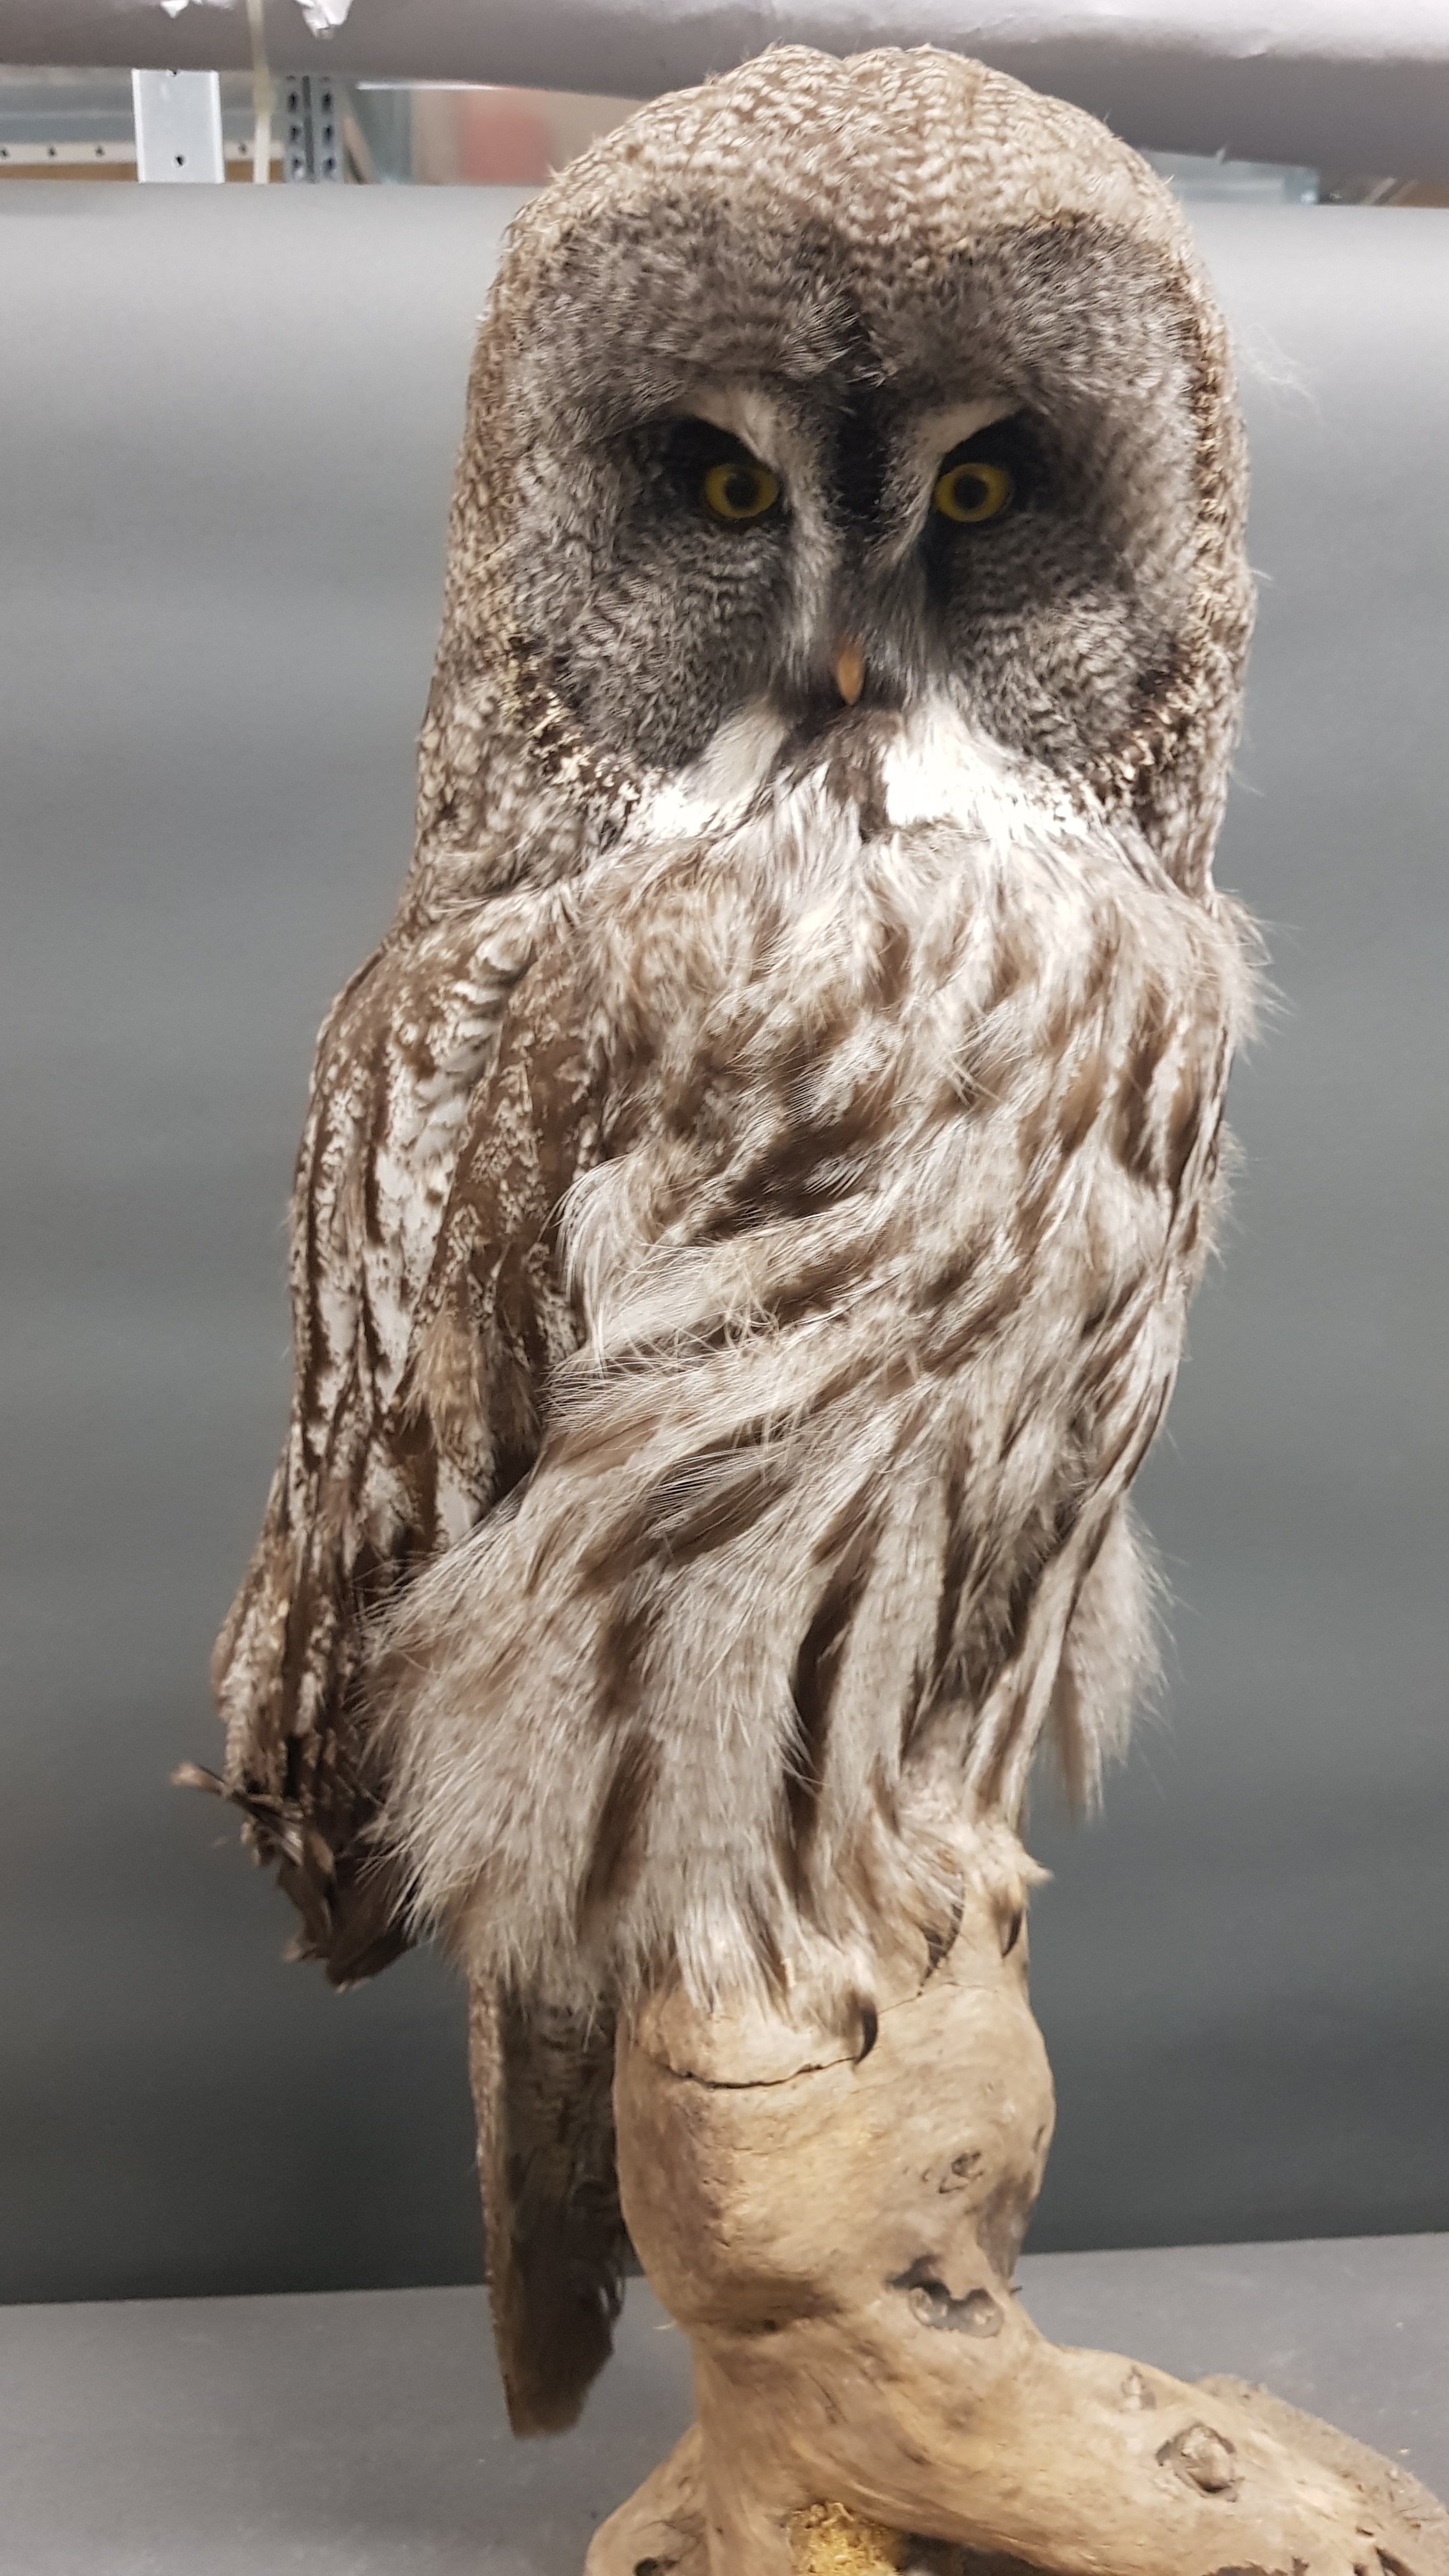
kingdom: Animalia
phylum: Chordata
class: Aves
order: Strigiformes
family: Strigidae
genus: Strix
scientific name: Strix nebulosa
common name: Great grey owl
